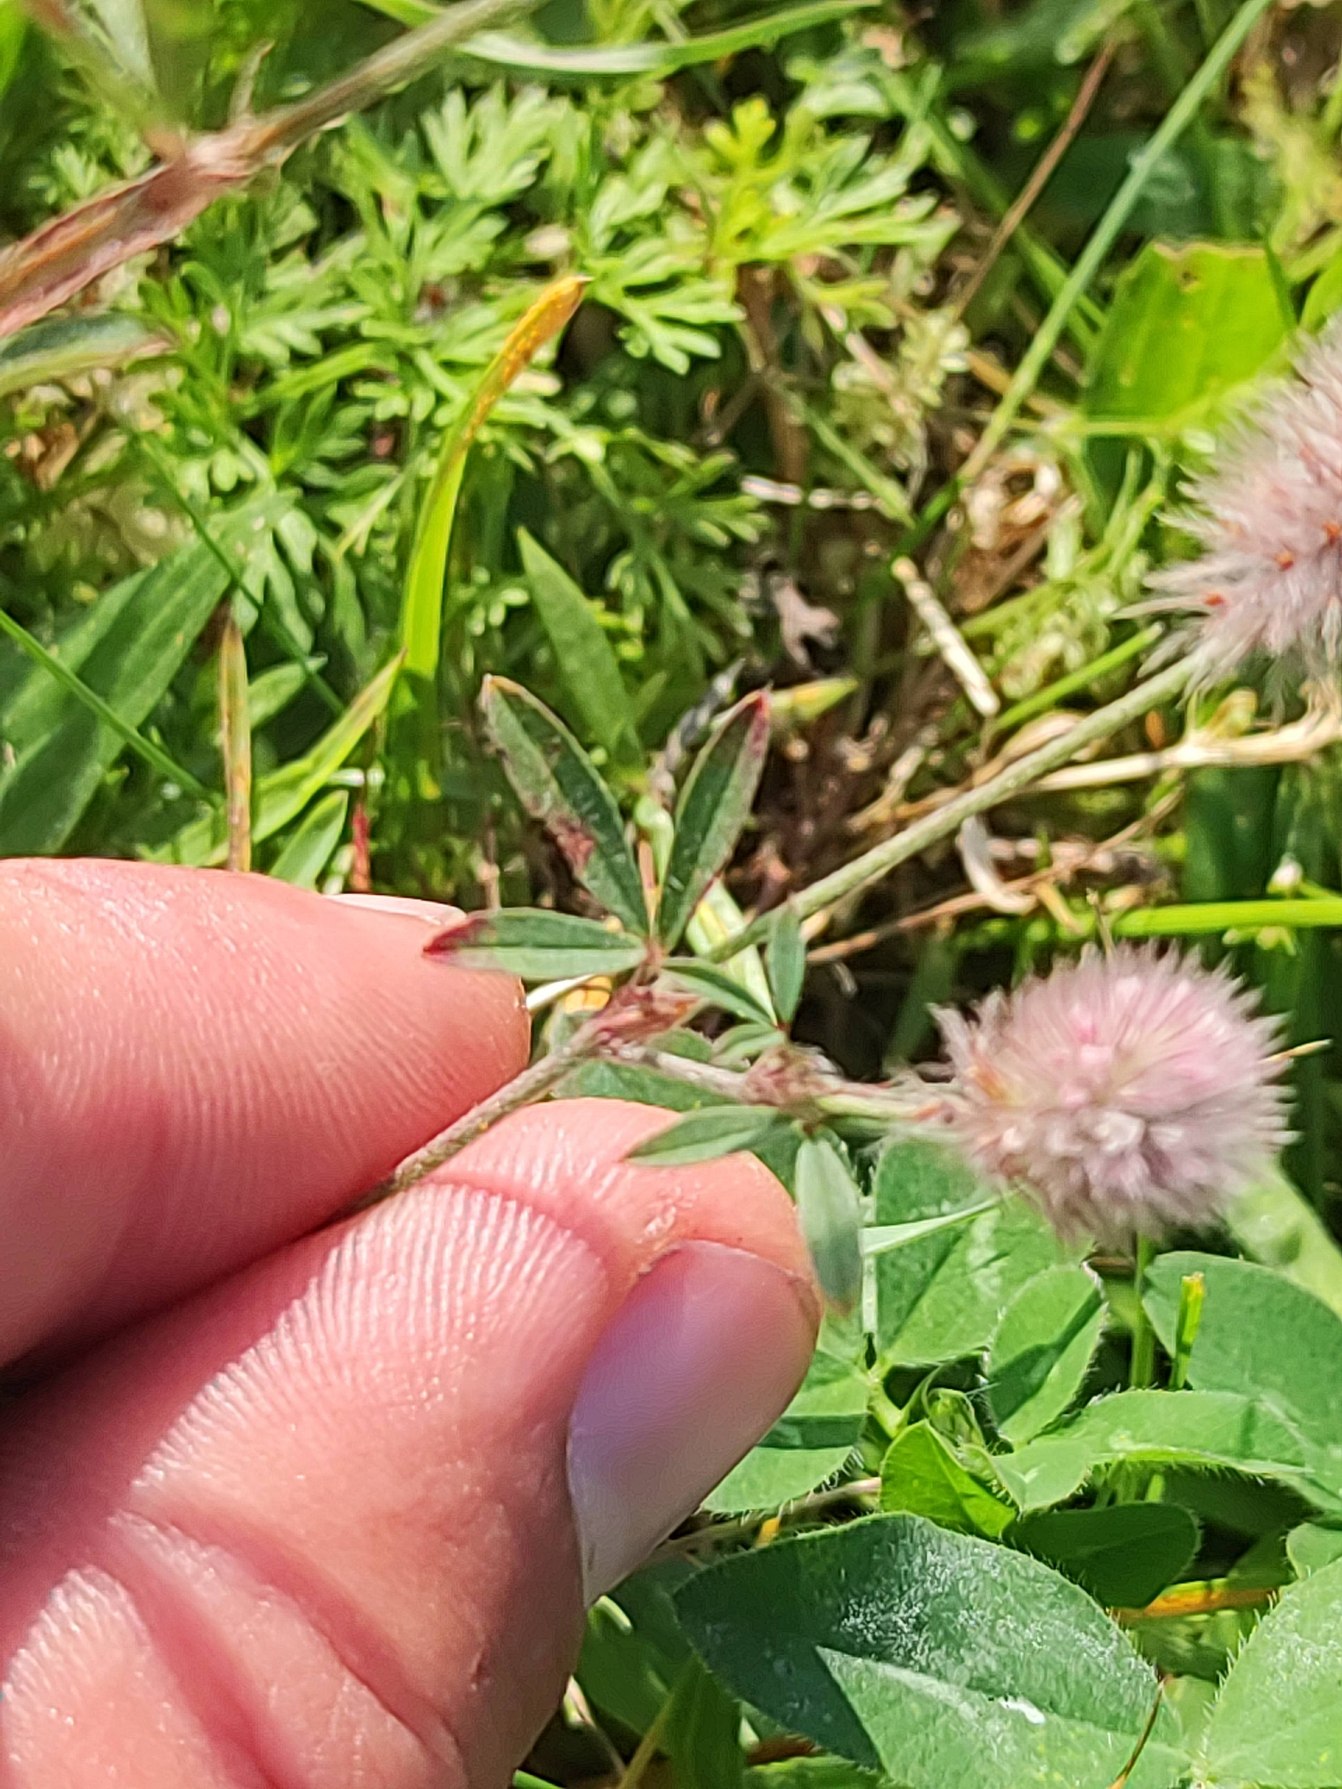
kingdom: Plantae
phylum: Tracheophyta
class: Magnoliopsida
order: Fabales
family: Fabaceae
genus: Trifolium
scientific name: Trifolium arvense
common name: Hare-kløver
